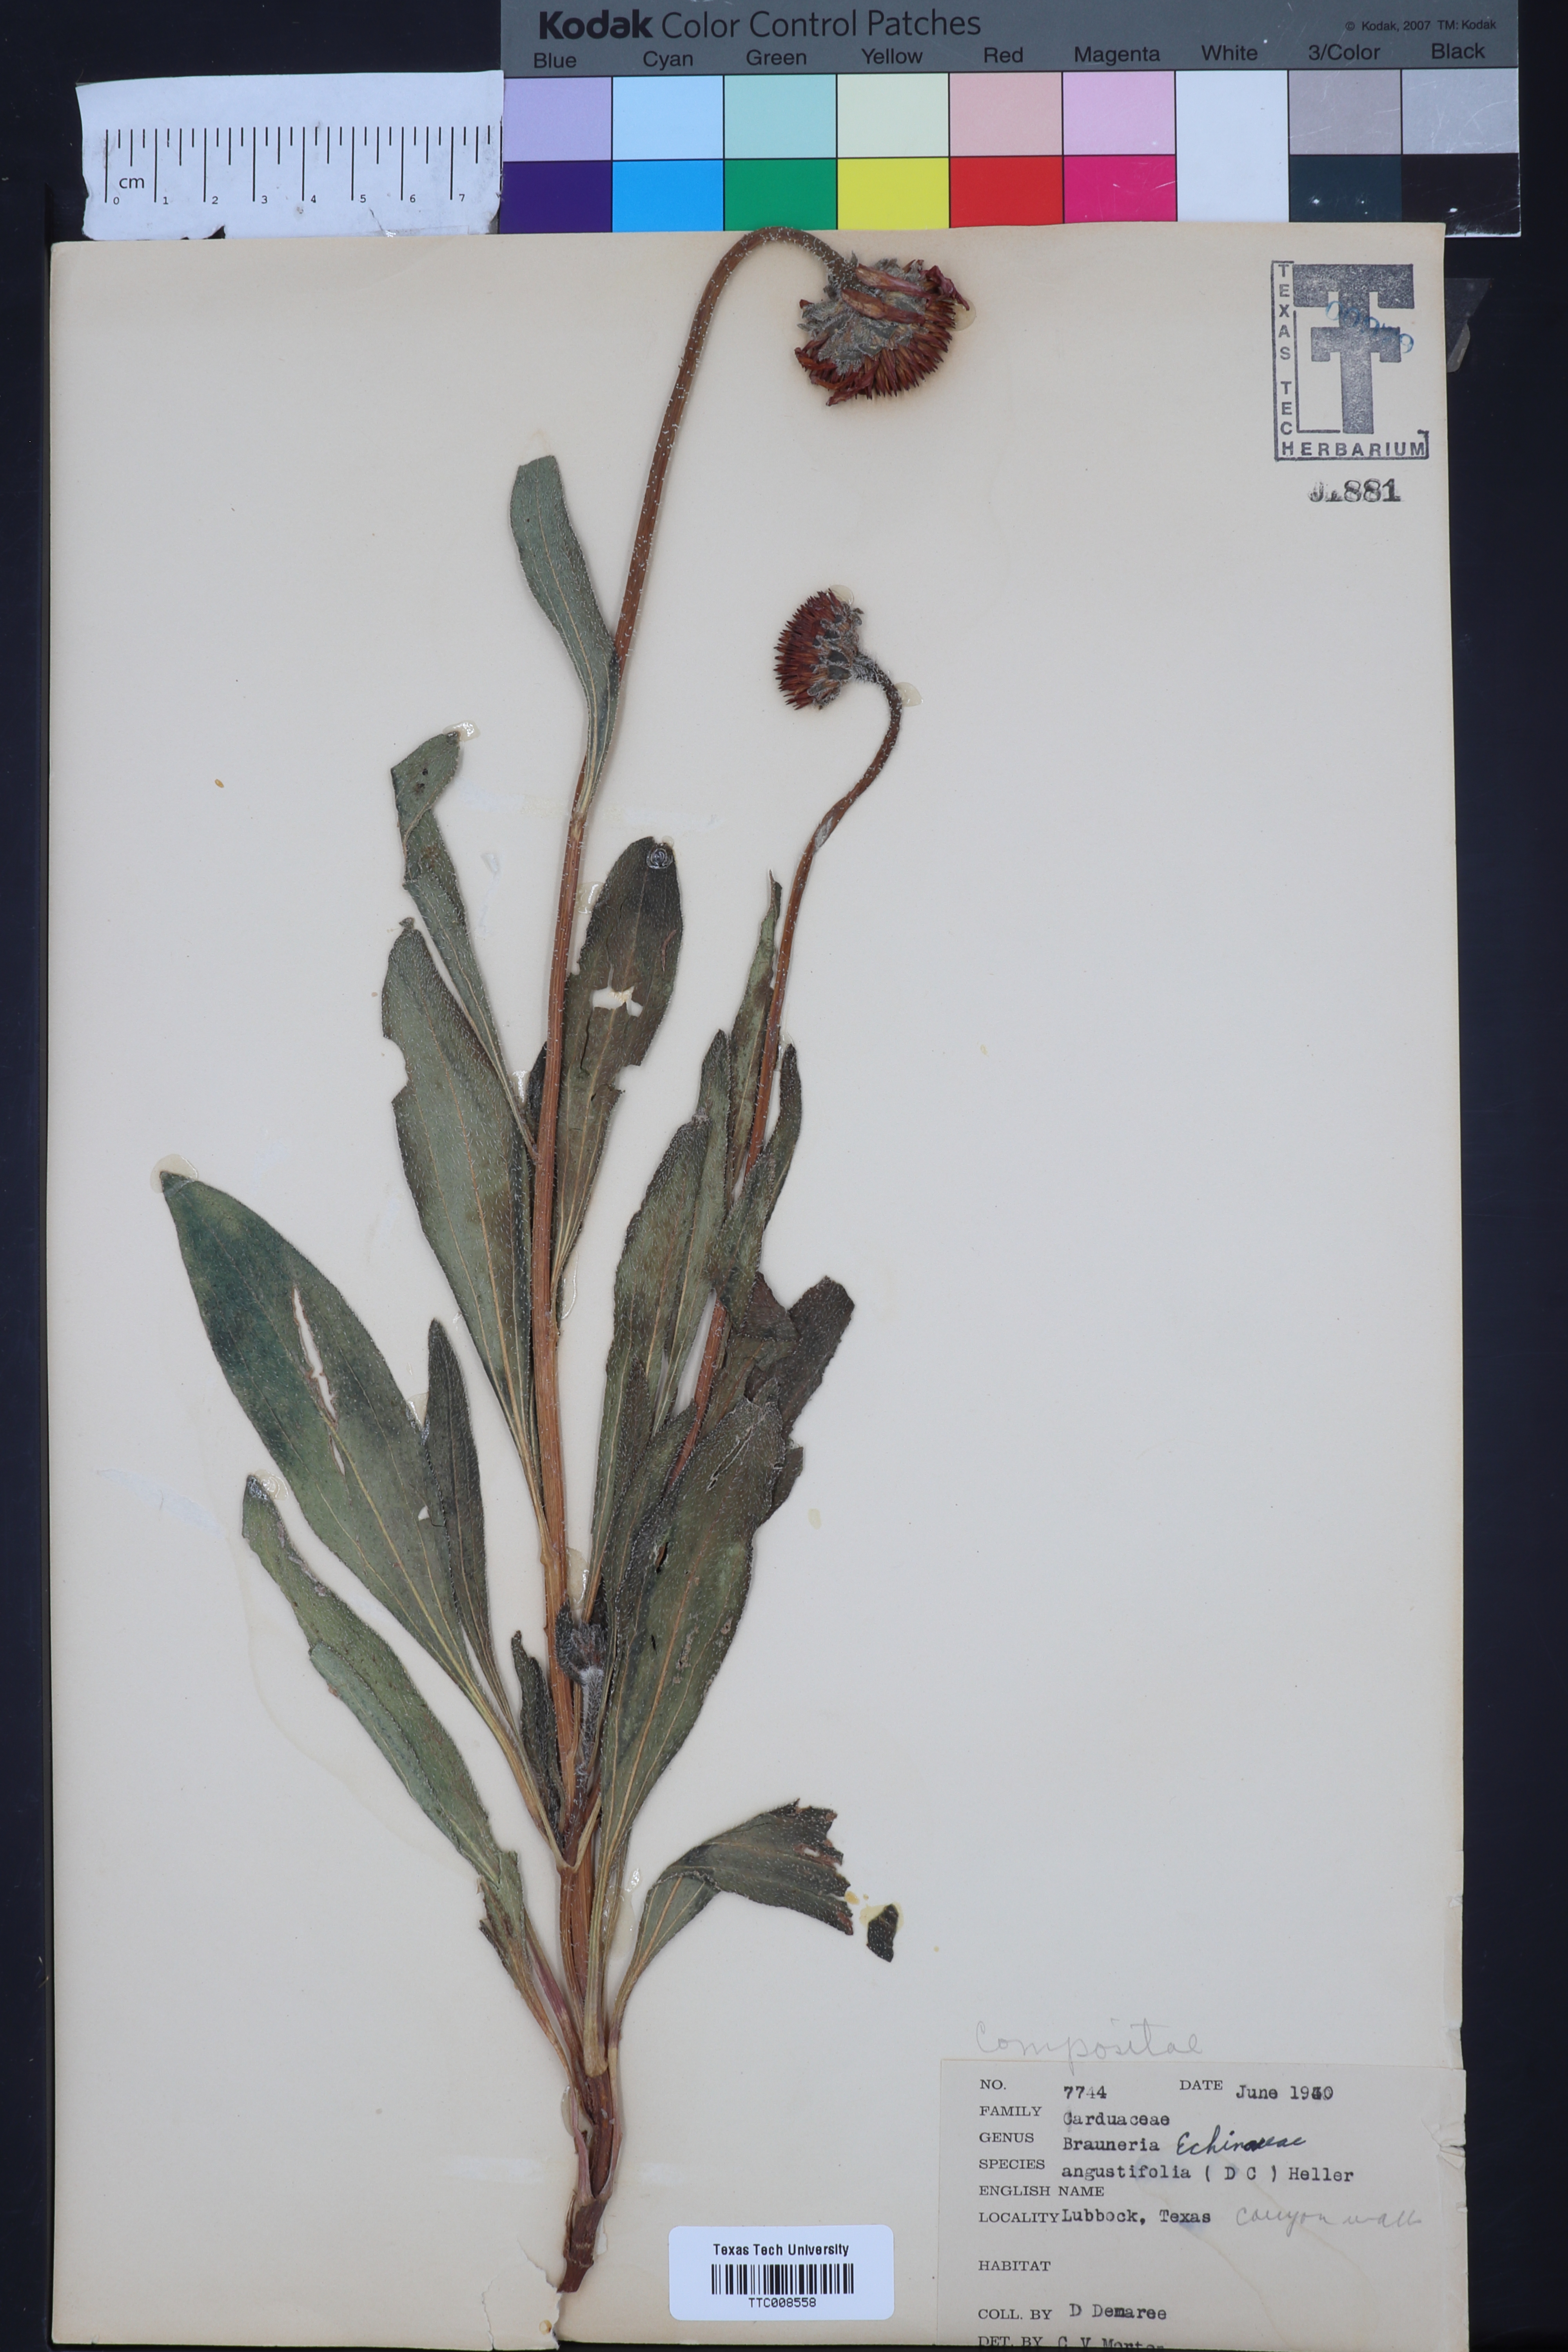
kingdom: Plantae
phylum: Tracheophyta
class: Magnoliopsida
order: Asterales
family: Asteraceae
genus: Echinacea
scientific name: Echinacea angustifolia
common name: Black-sampson echinacea
